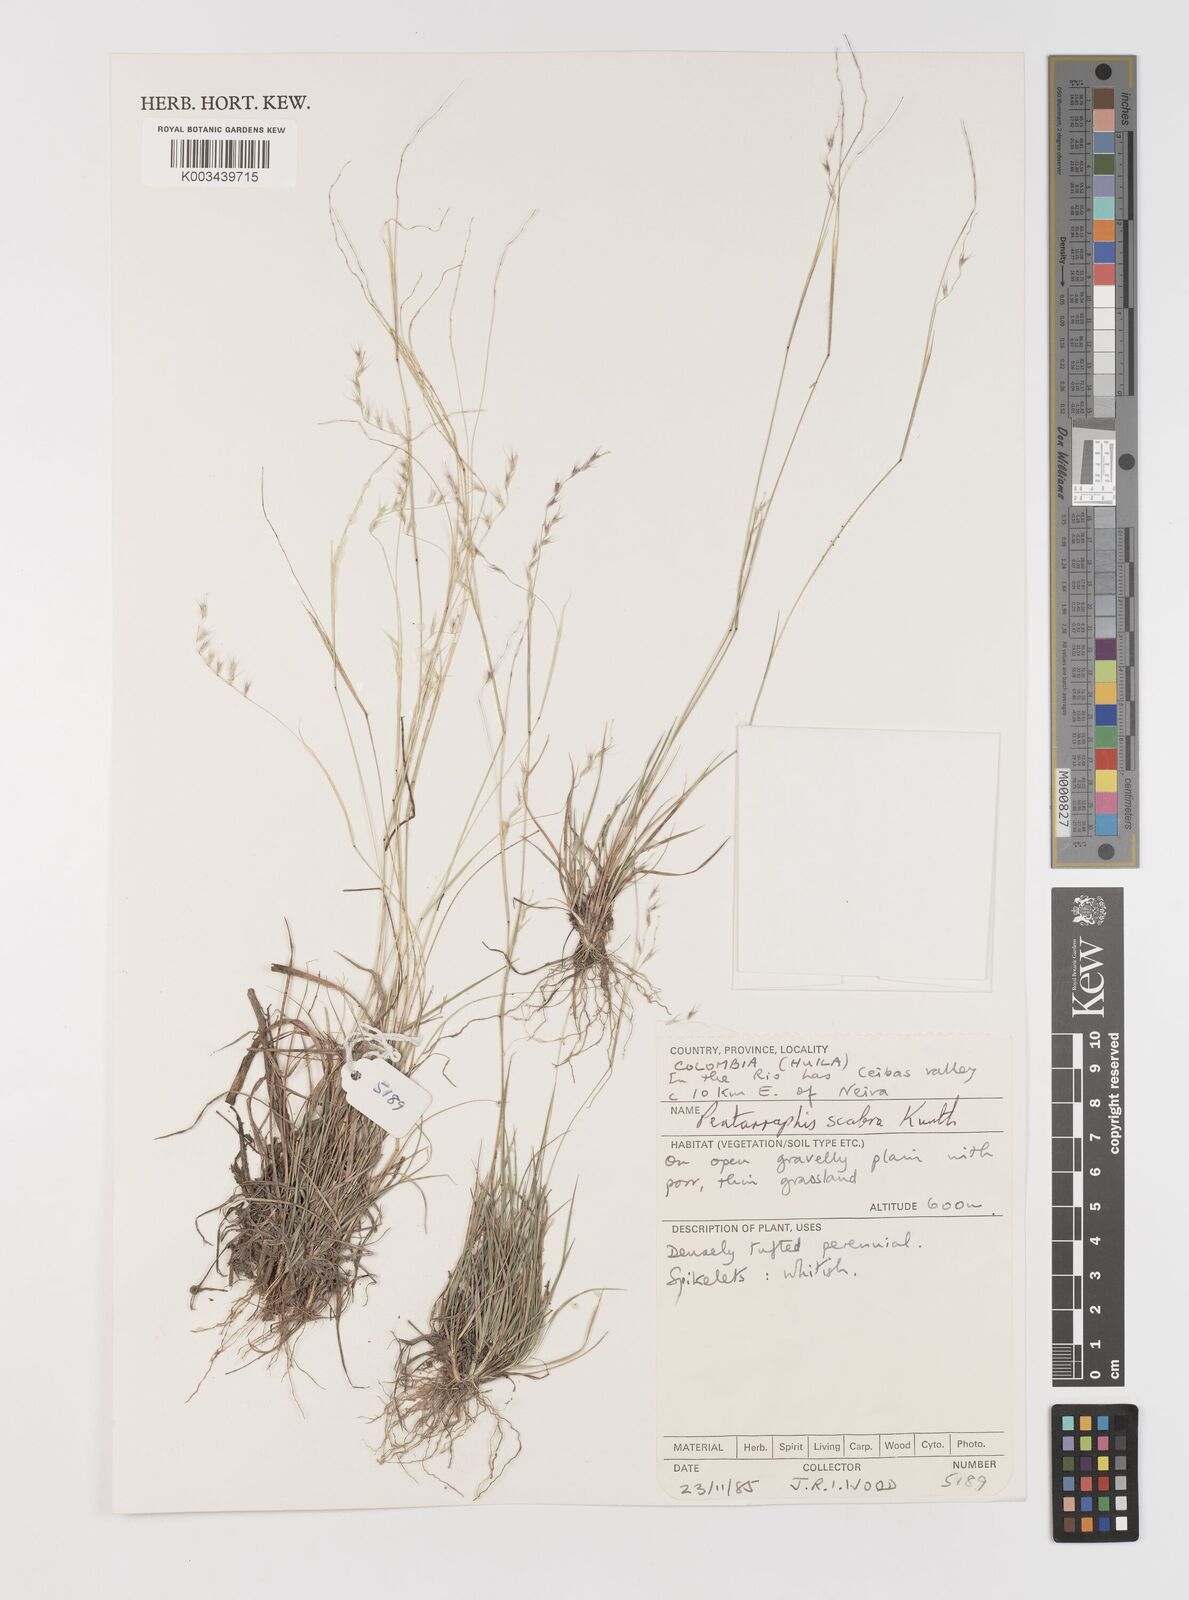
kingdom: Plantae
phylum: Tracheophyta
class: Liliopsida
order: Poales
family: Poaceae
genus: Bouteloua
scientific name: Bouteloua scabra
